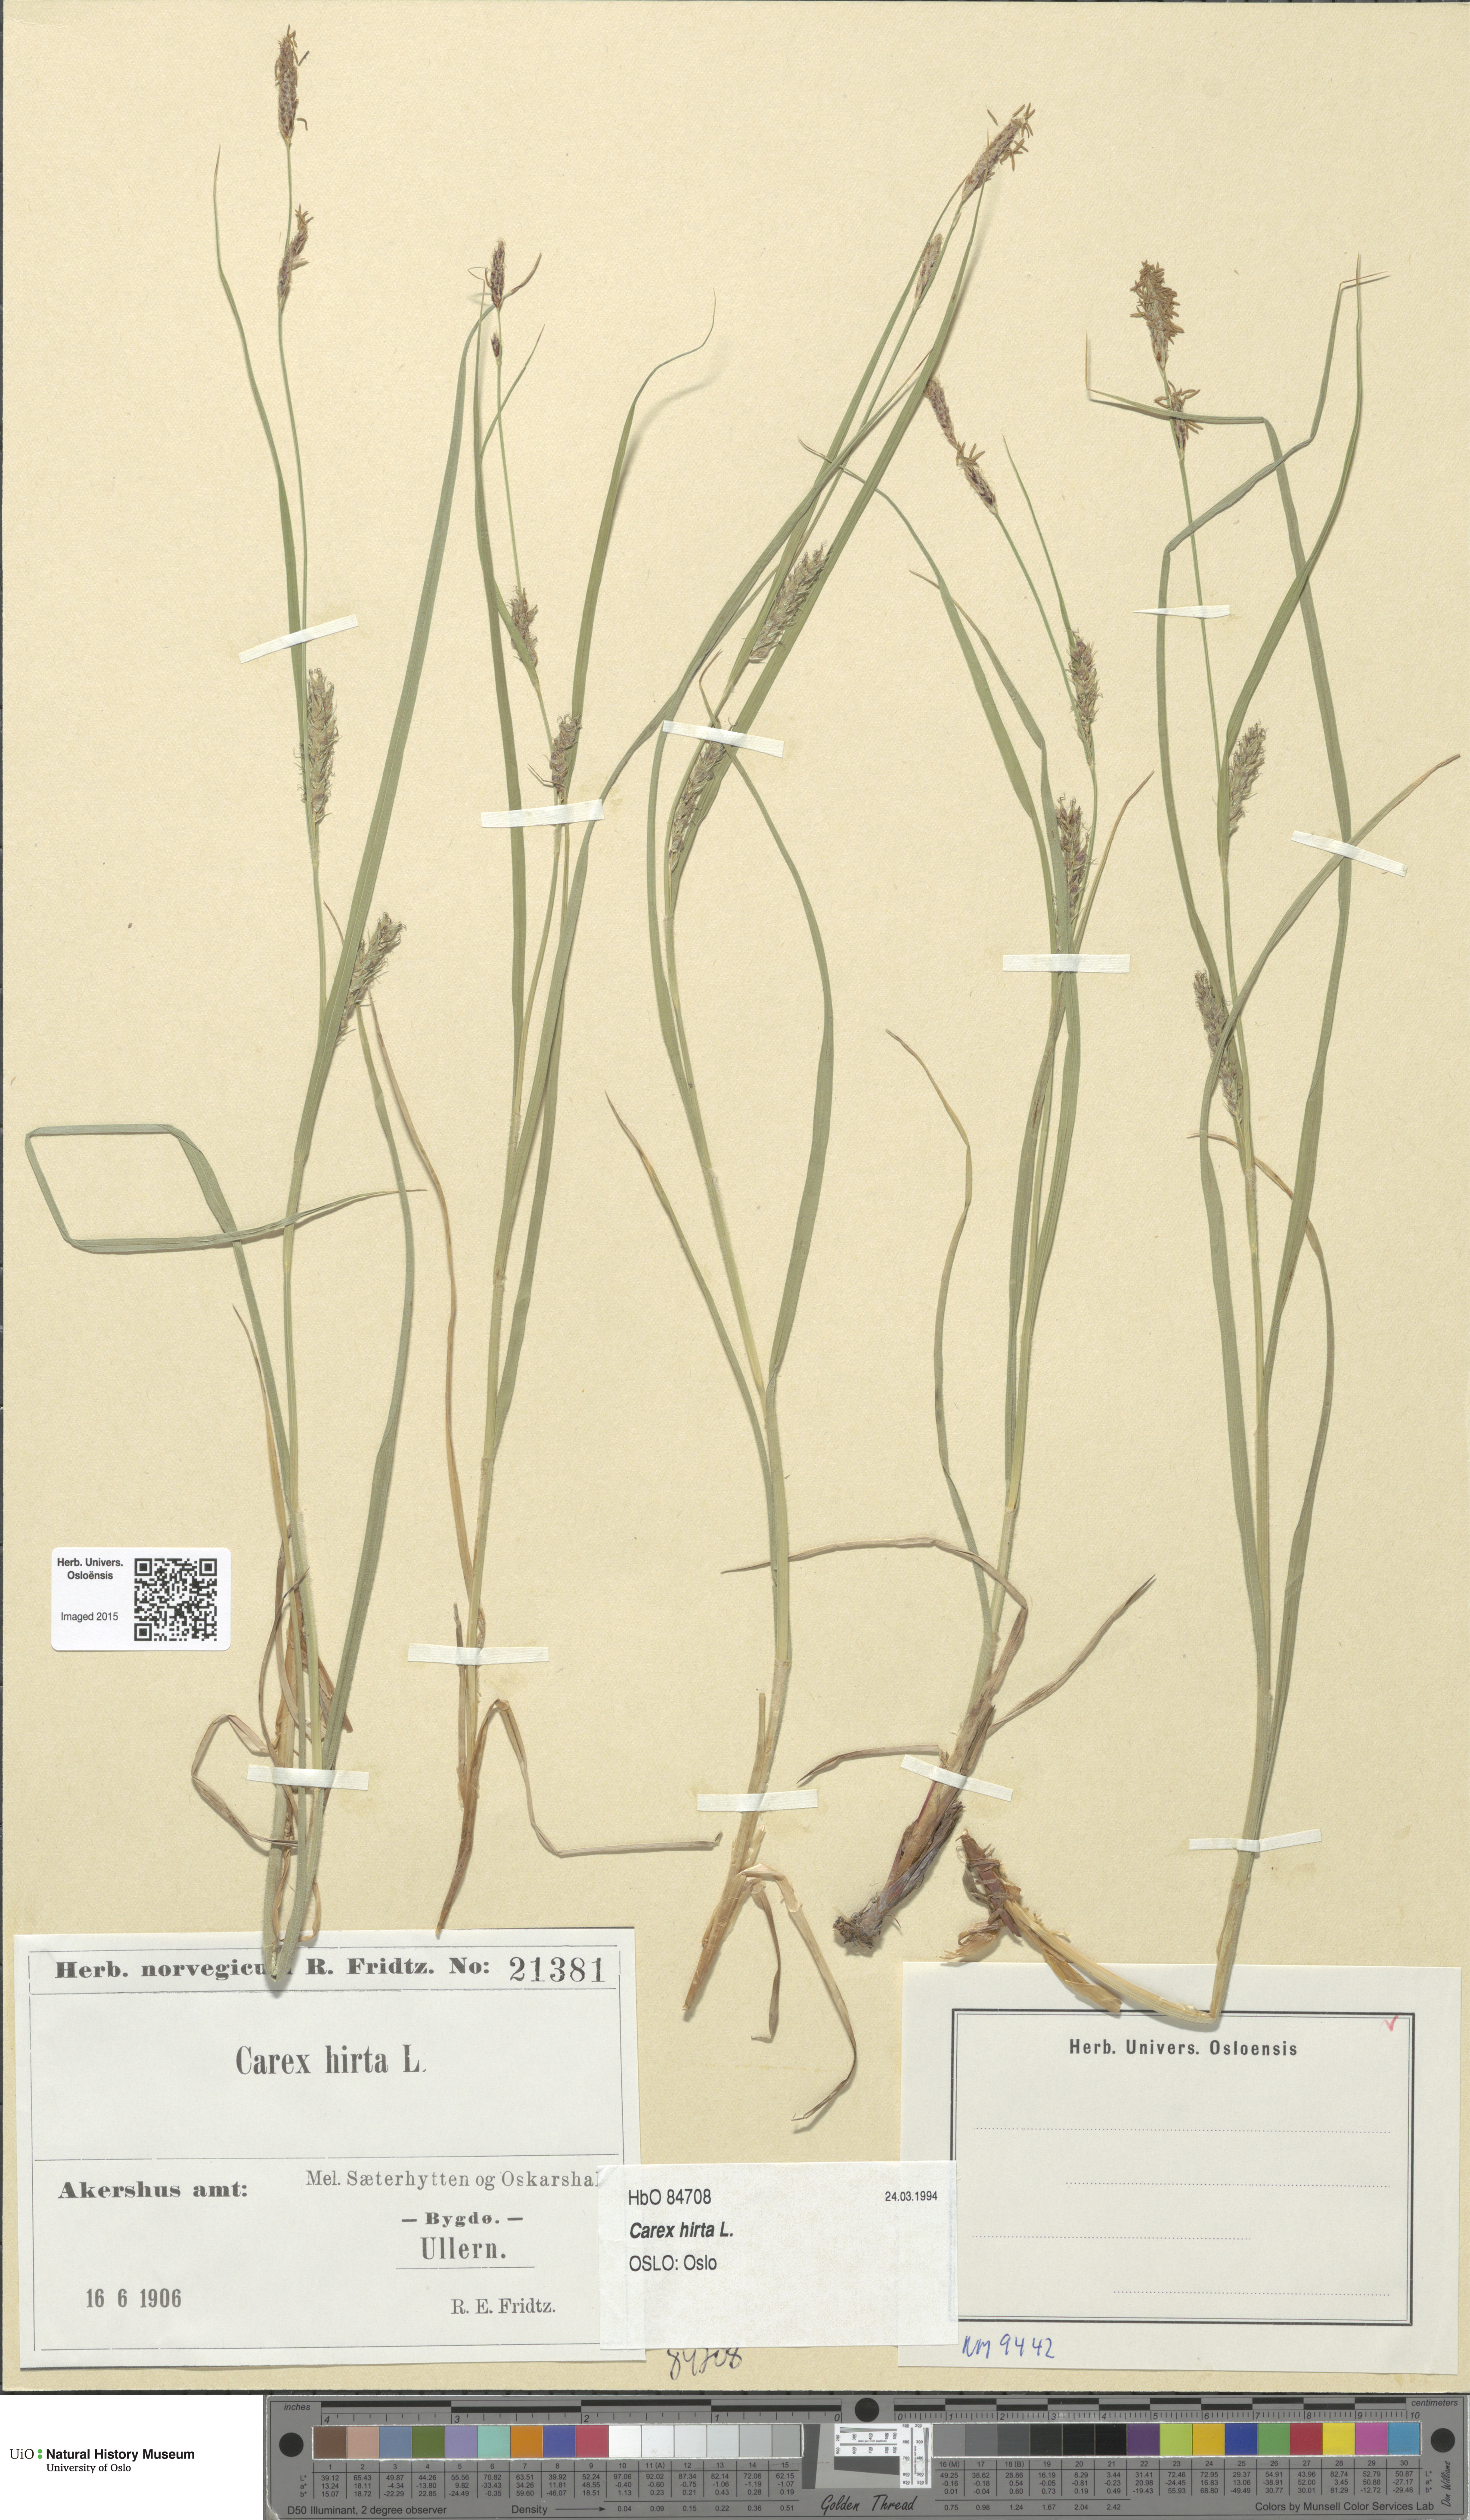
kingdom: Plantae
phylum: Tracheophyta
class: Liliopsida
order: Poales
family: Cyperaceae
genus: Carex
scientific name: Carex hirta
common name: Hairy sedge
